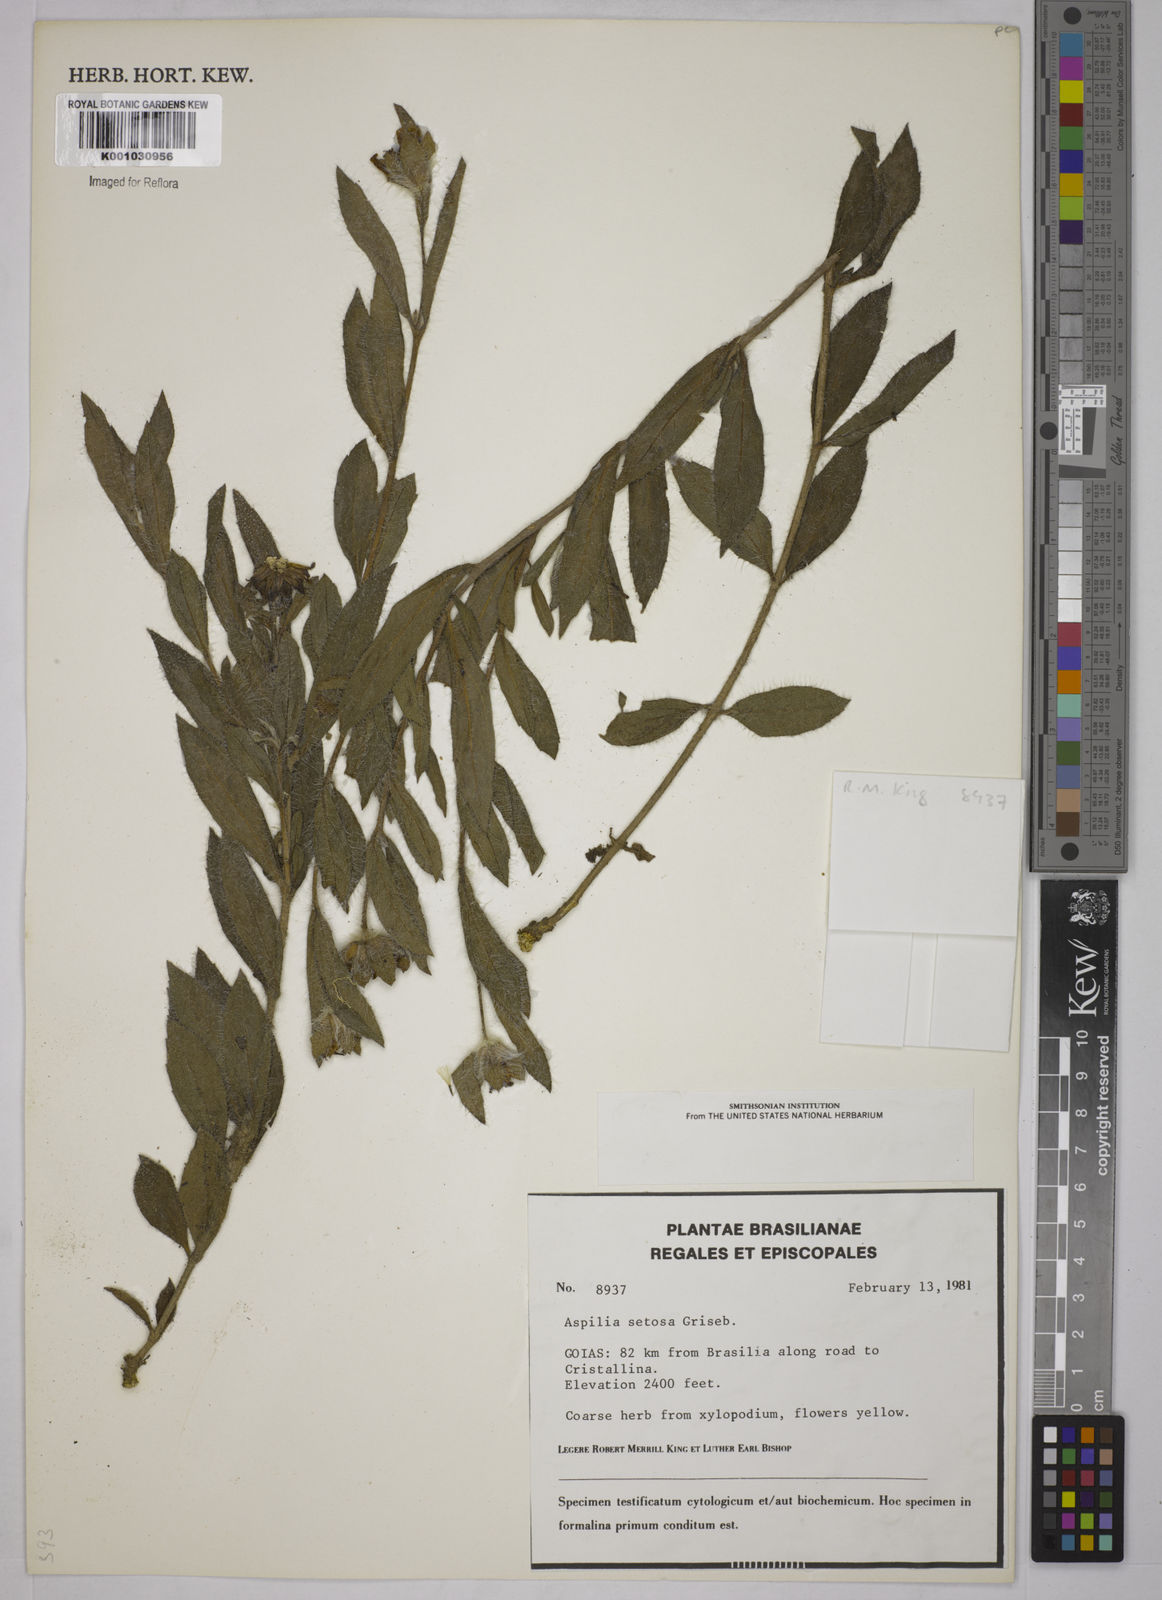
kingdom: Plantae
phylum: Tracheophyta
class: Magnoliopsida
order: Asterales
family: Asteraceae
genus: Aspilia
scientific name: Aspilia
